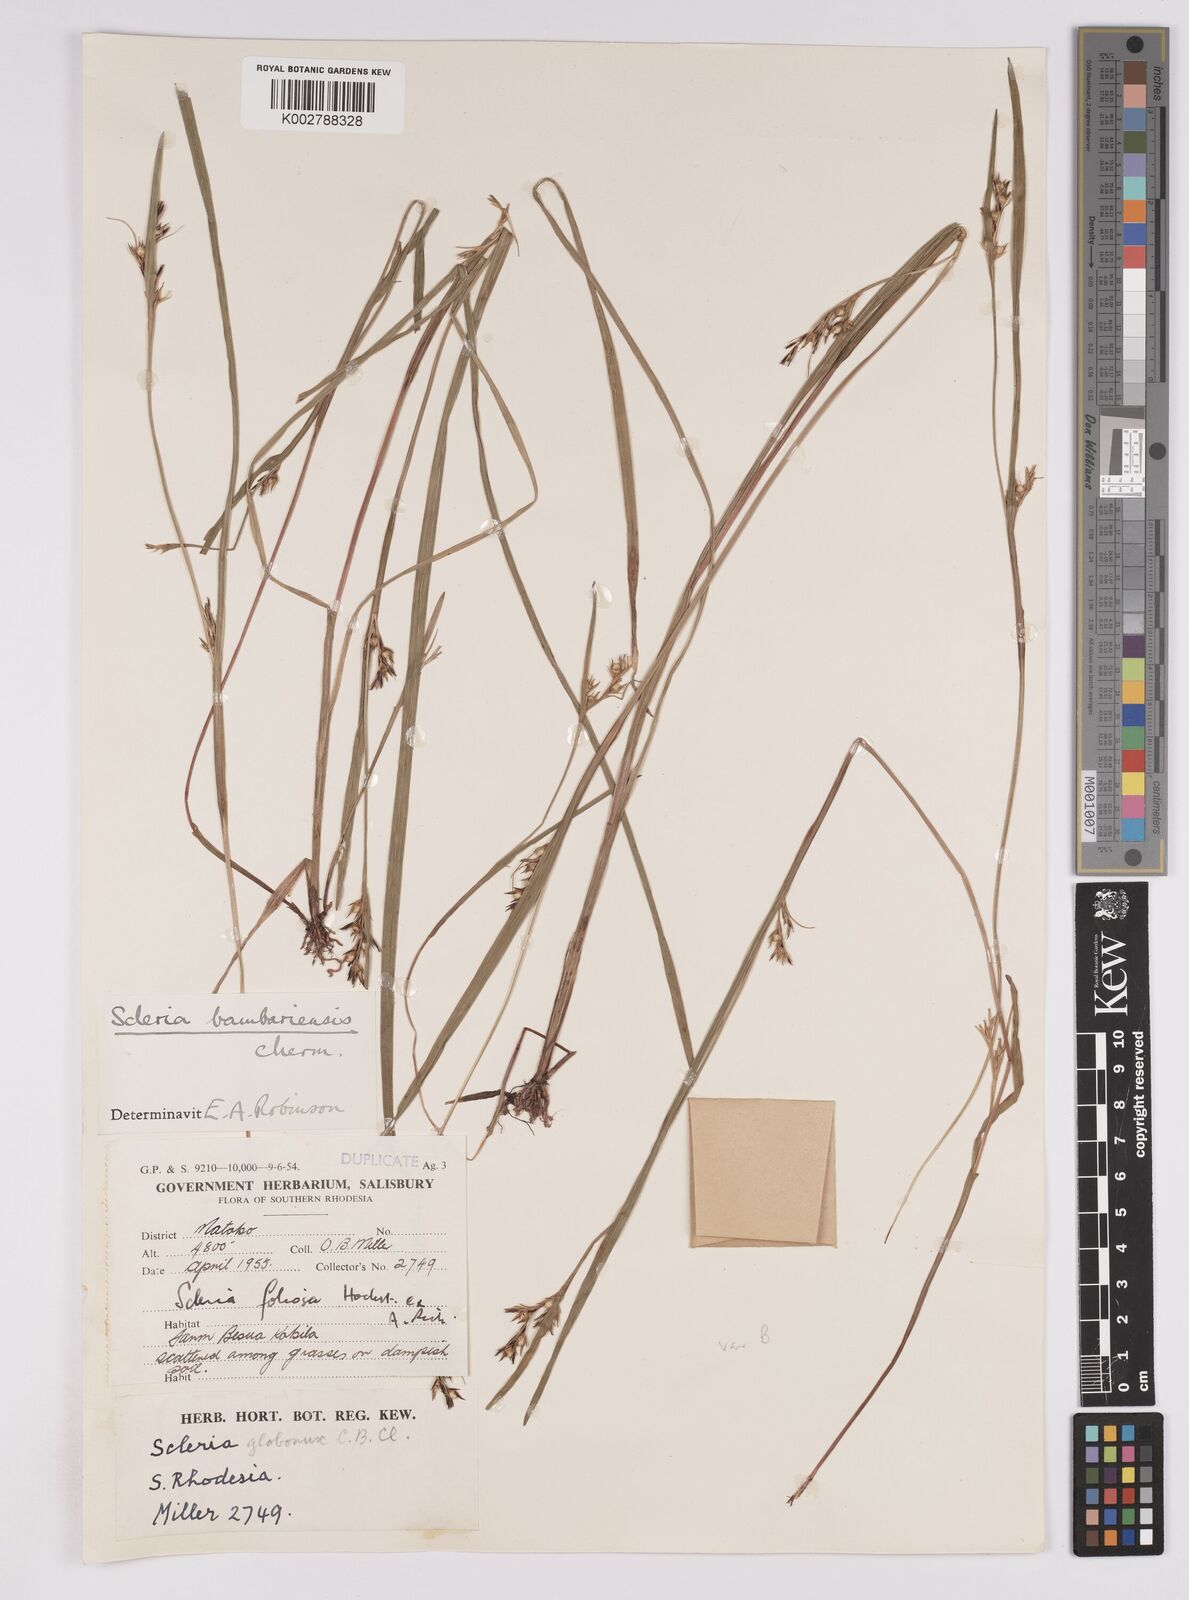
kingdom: Plantae
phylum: Tracheophyta
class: Liliopsida
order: Poales
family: Cyperaceae
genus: Scleria
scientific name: Scleria bambariensis
